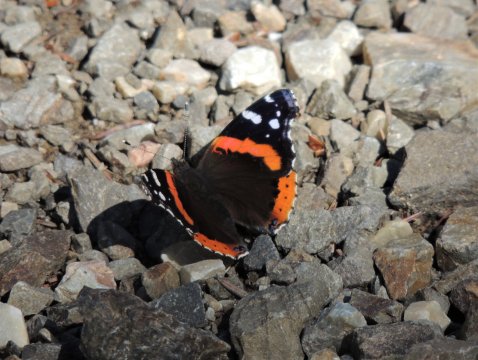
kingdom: Animalia
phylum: Arthropoda
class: Insecta
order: Lepidoptera
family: Nymphalidae
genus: Vanessa
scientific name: Vanessa atalanta
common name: Red Admiral
